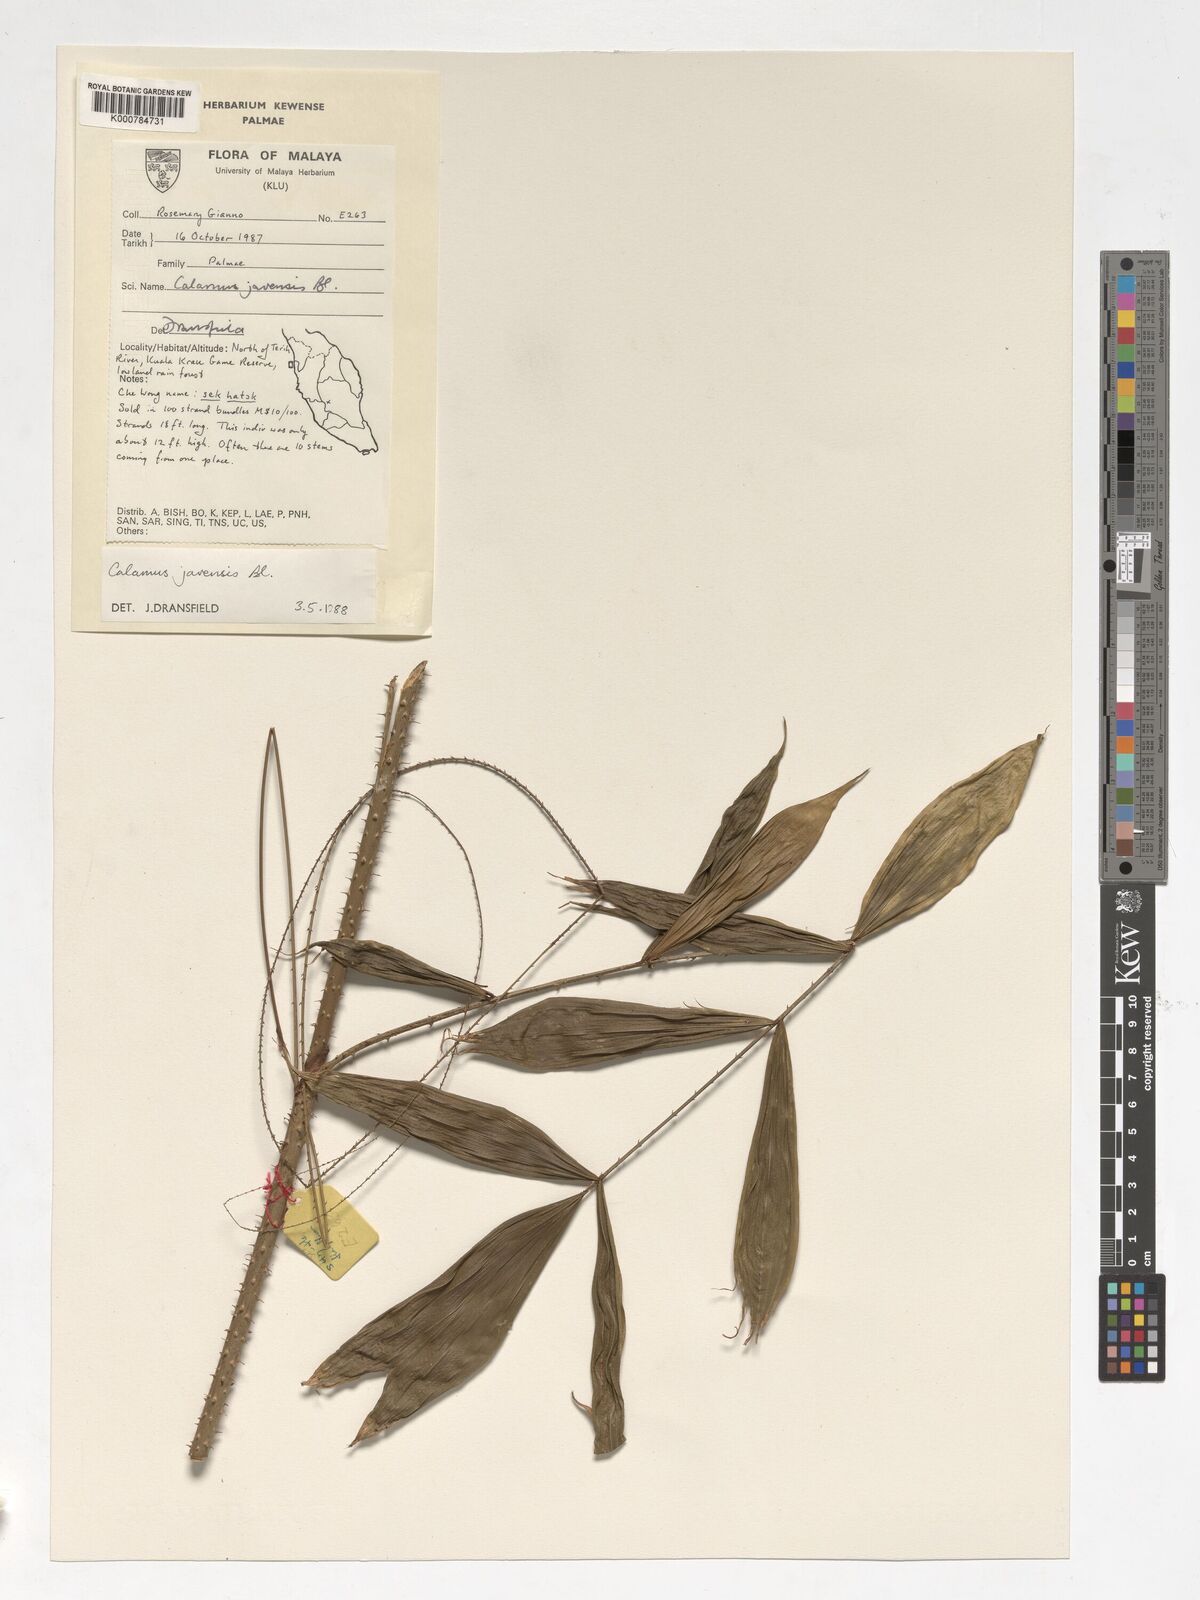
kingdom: Plantae
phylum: Tracheophyta
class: Liliopsida
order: Arecales
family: Arecaceae
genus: Calamus
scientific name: Calamus javensis
